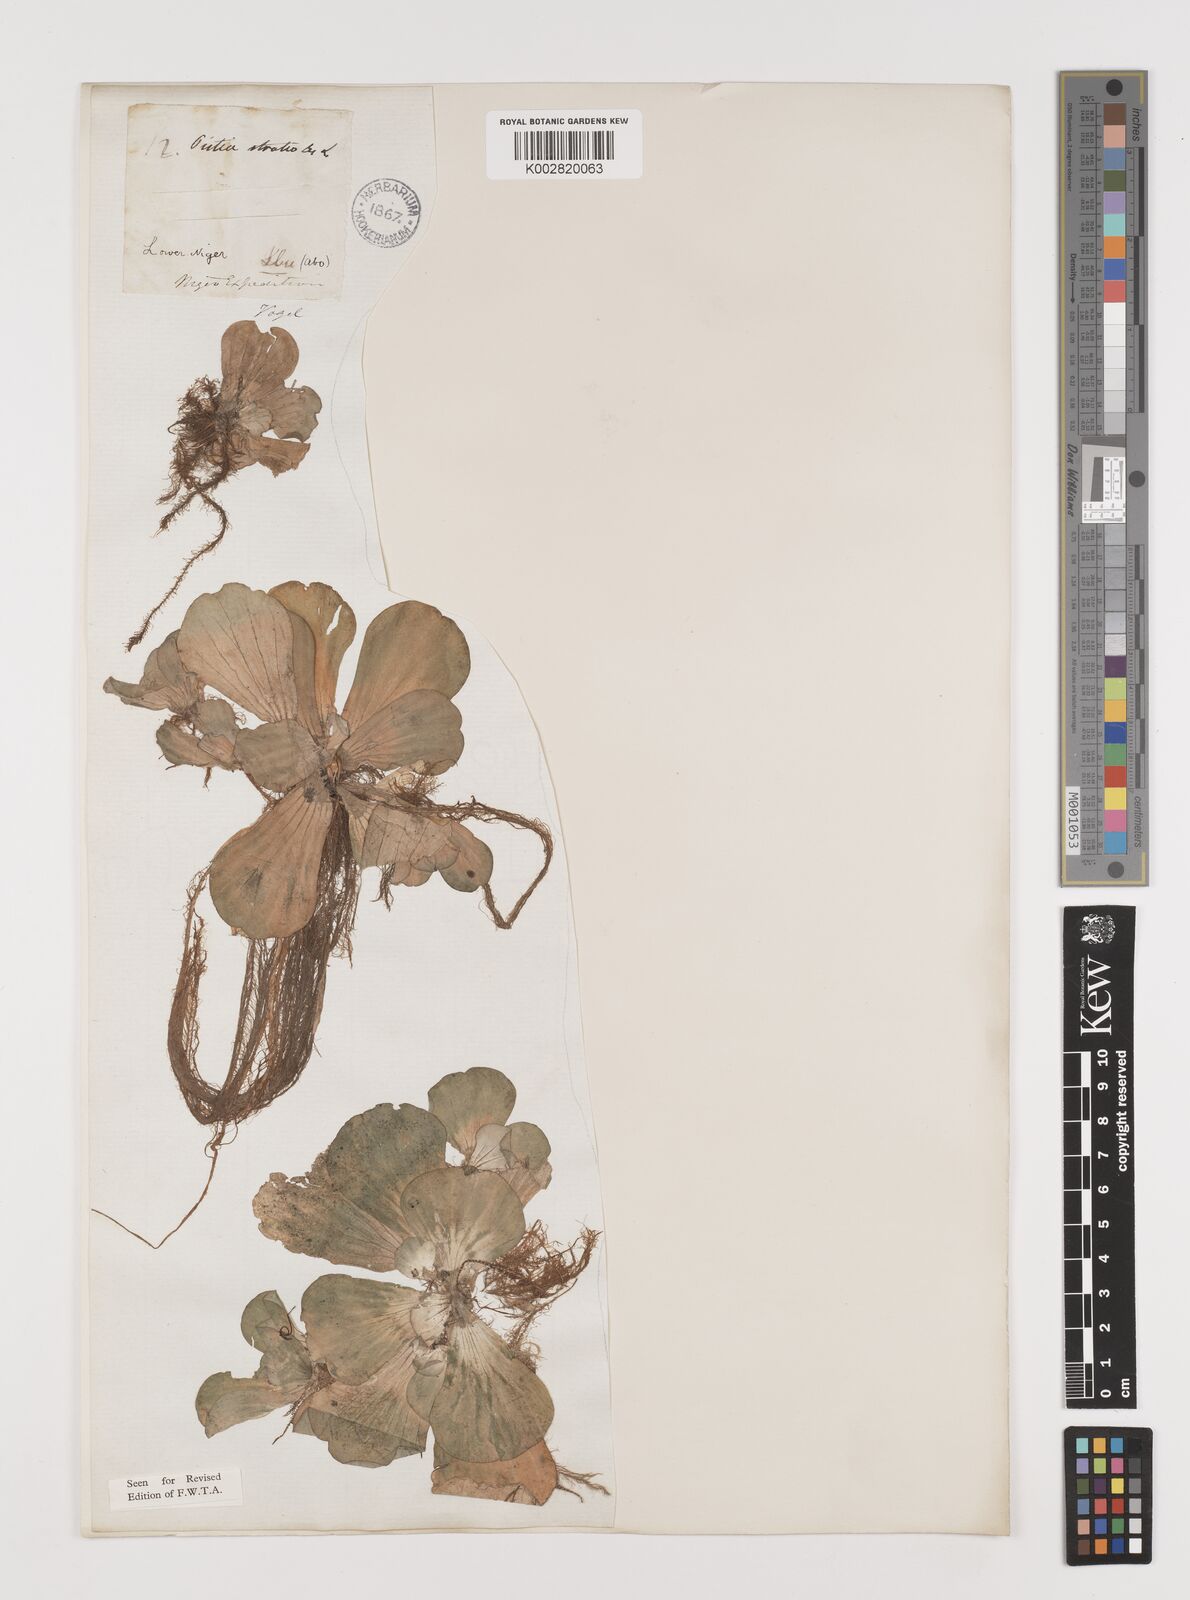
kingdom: Plantae
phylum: Tracheophyta
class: Liliopsida
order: Alismatales
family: Araceae
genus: Pistia
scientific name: Pistia stratiotes
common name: Water lettuce
